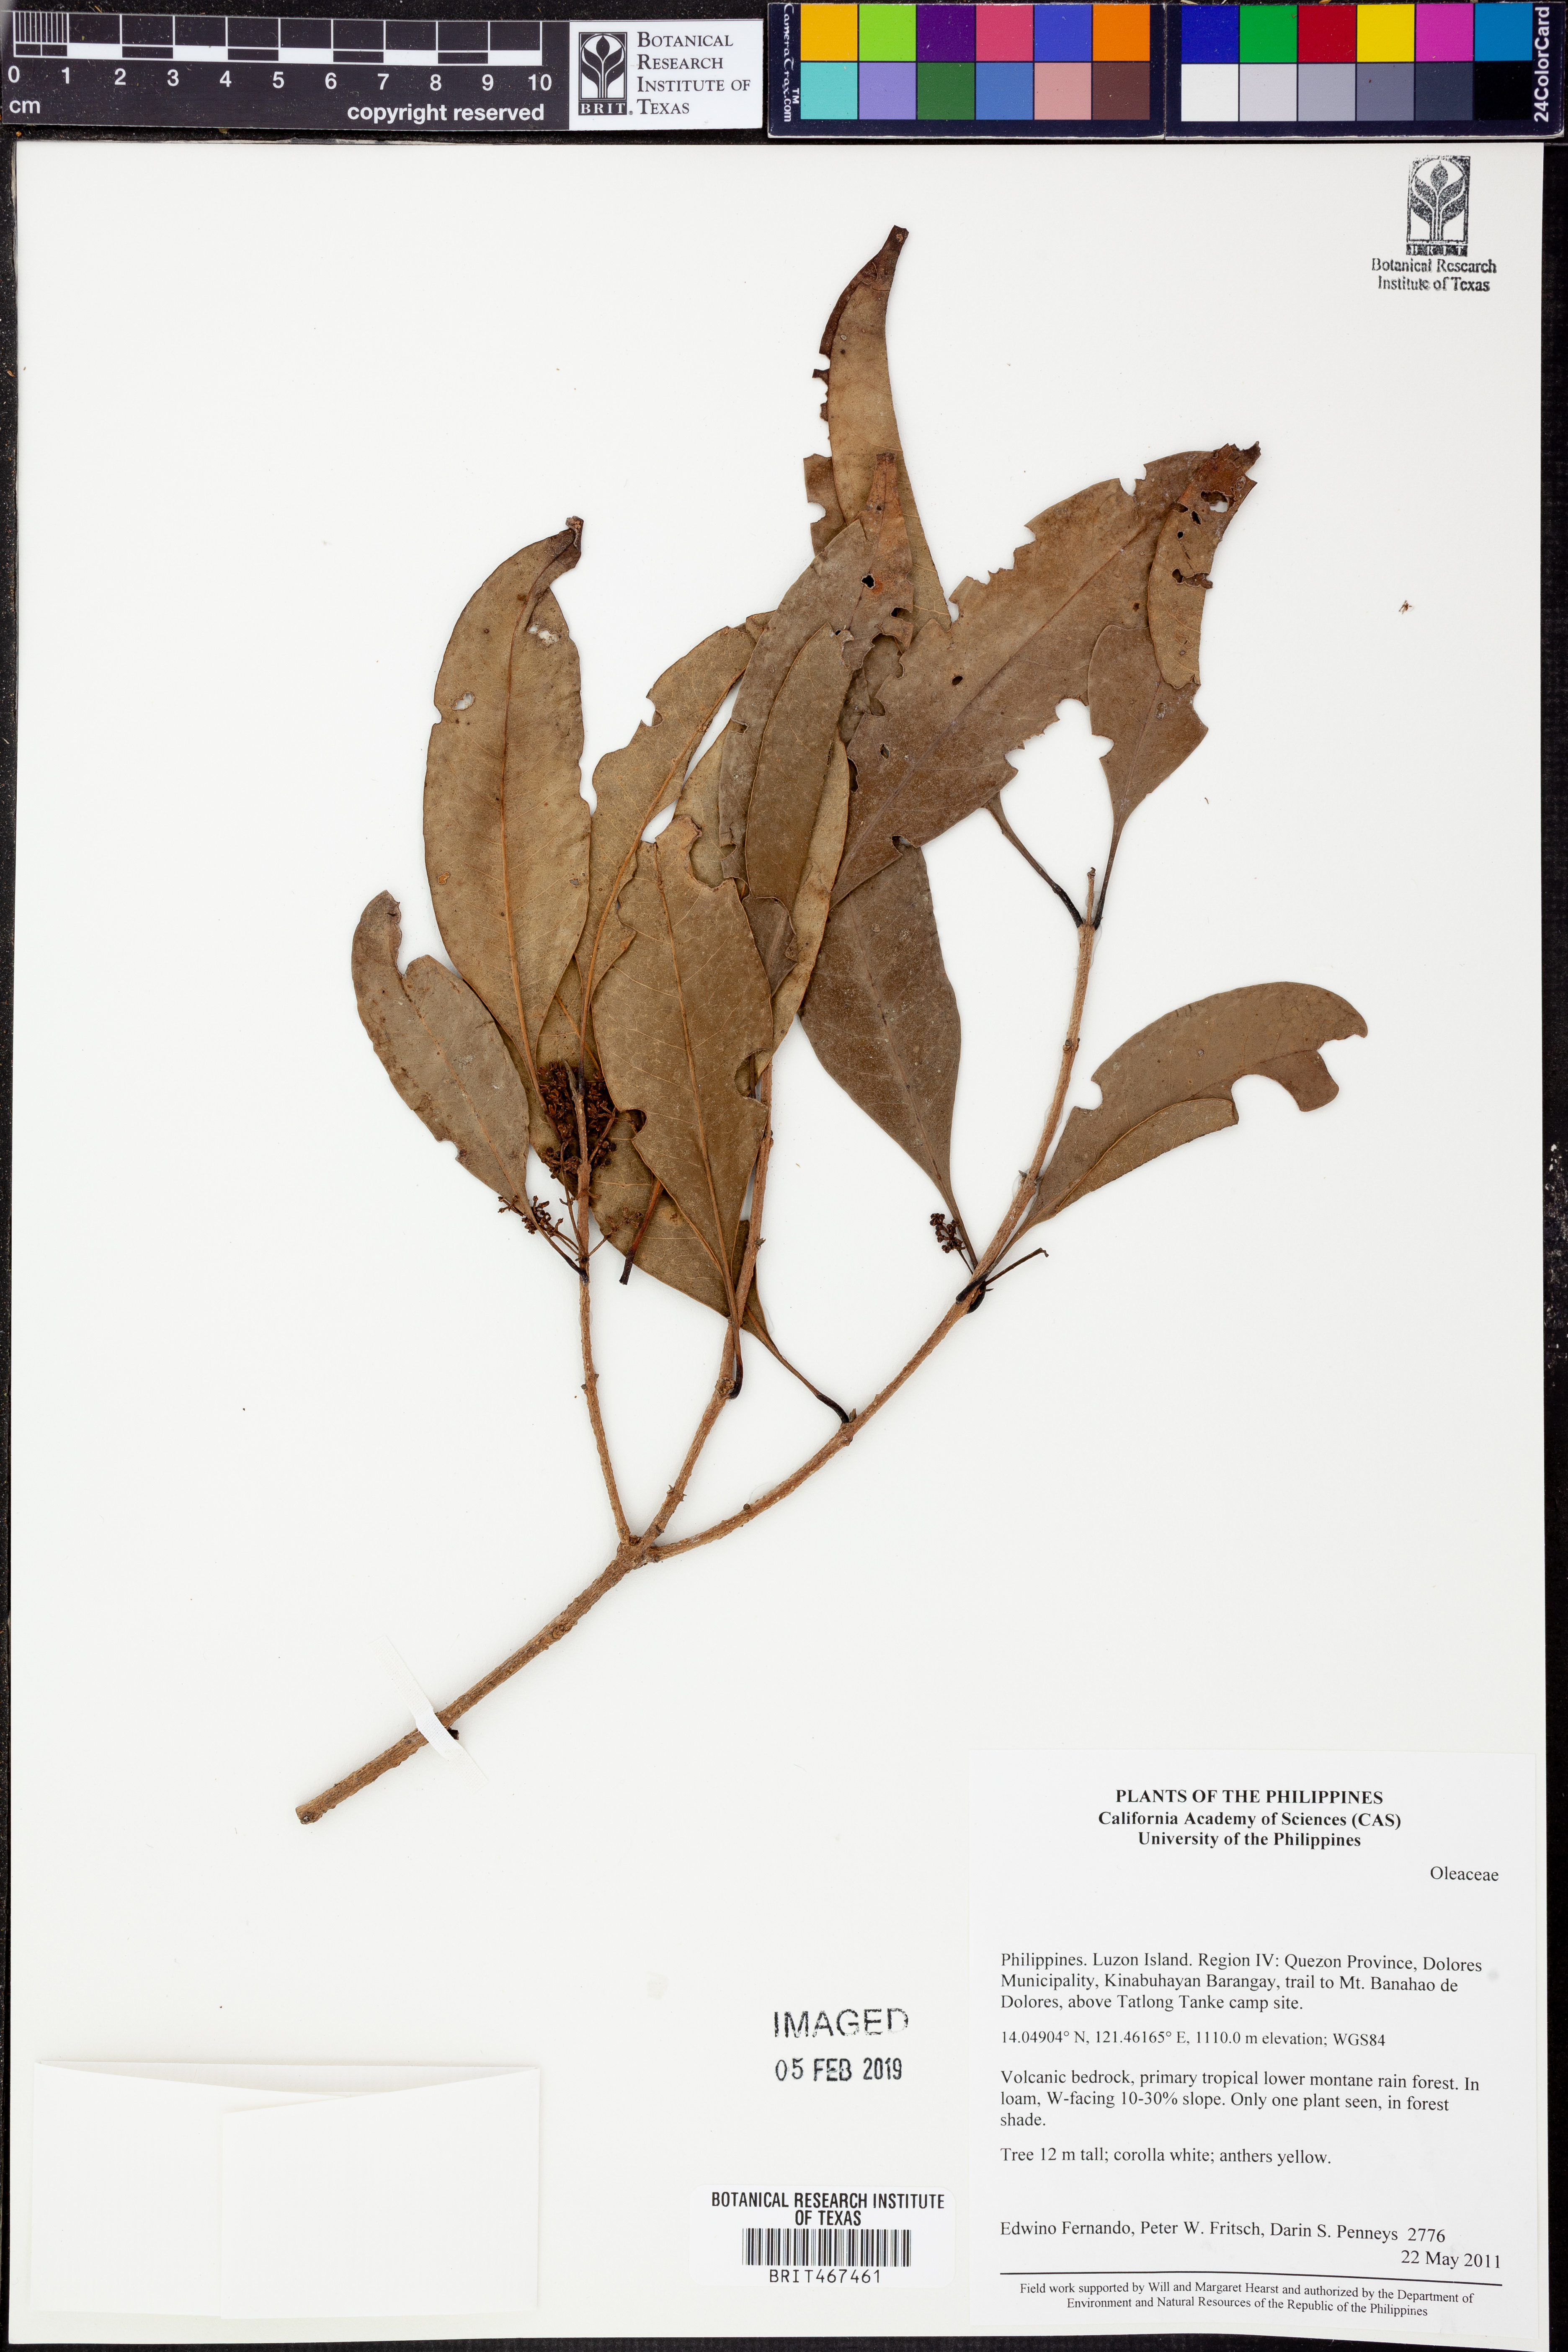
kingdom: Plantae
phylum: Tracheophyta
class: Magnoliopsida
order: Lamiales
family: Oleaceae
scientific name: Oleaceae
